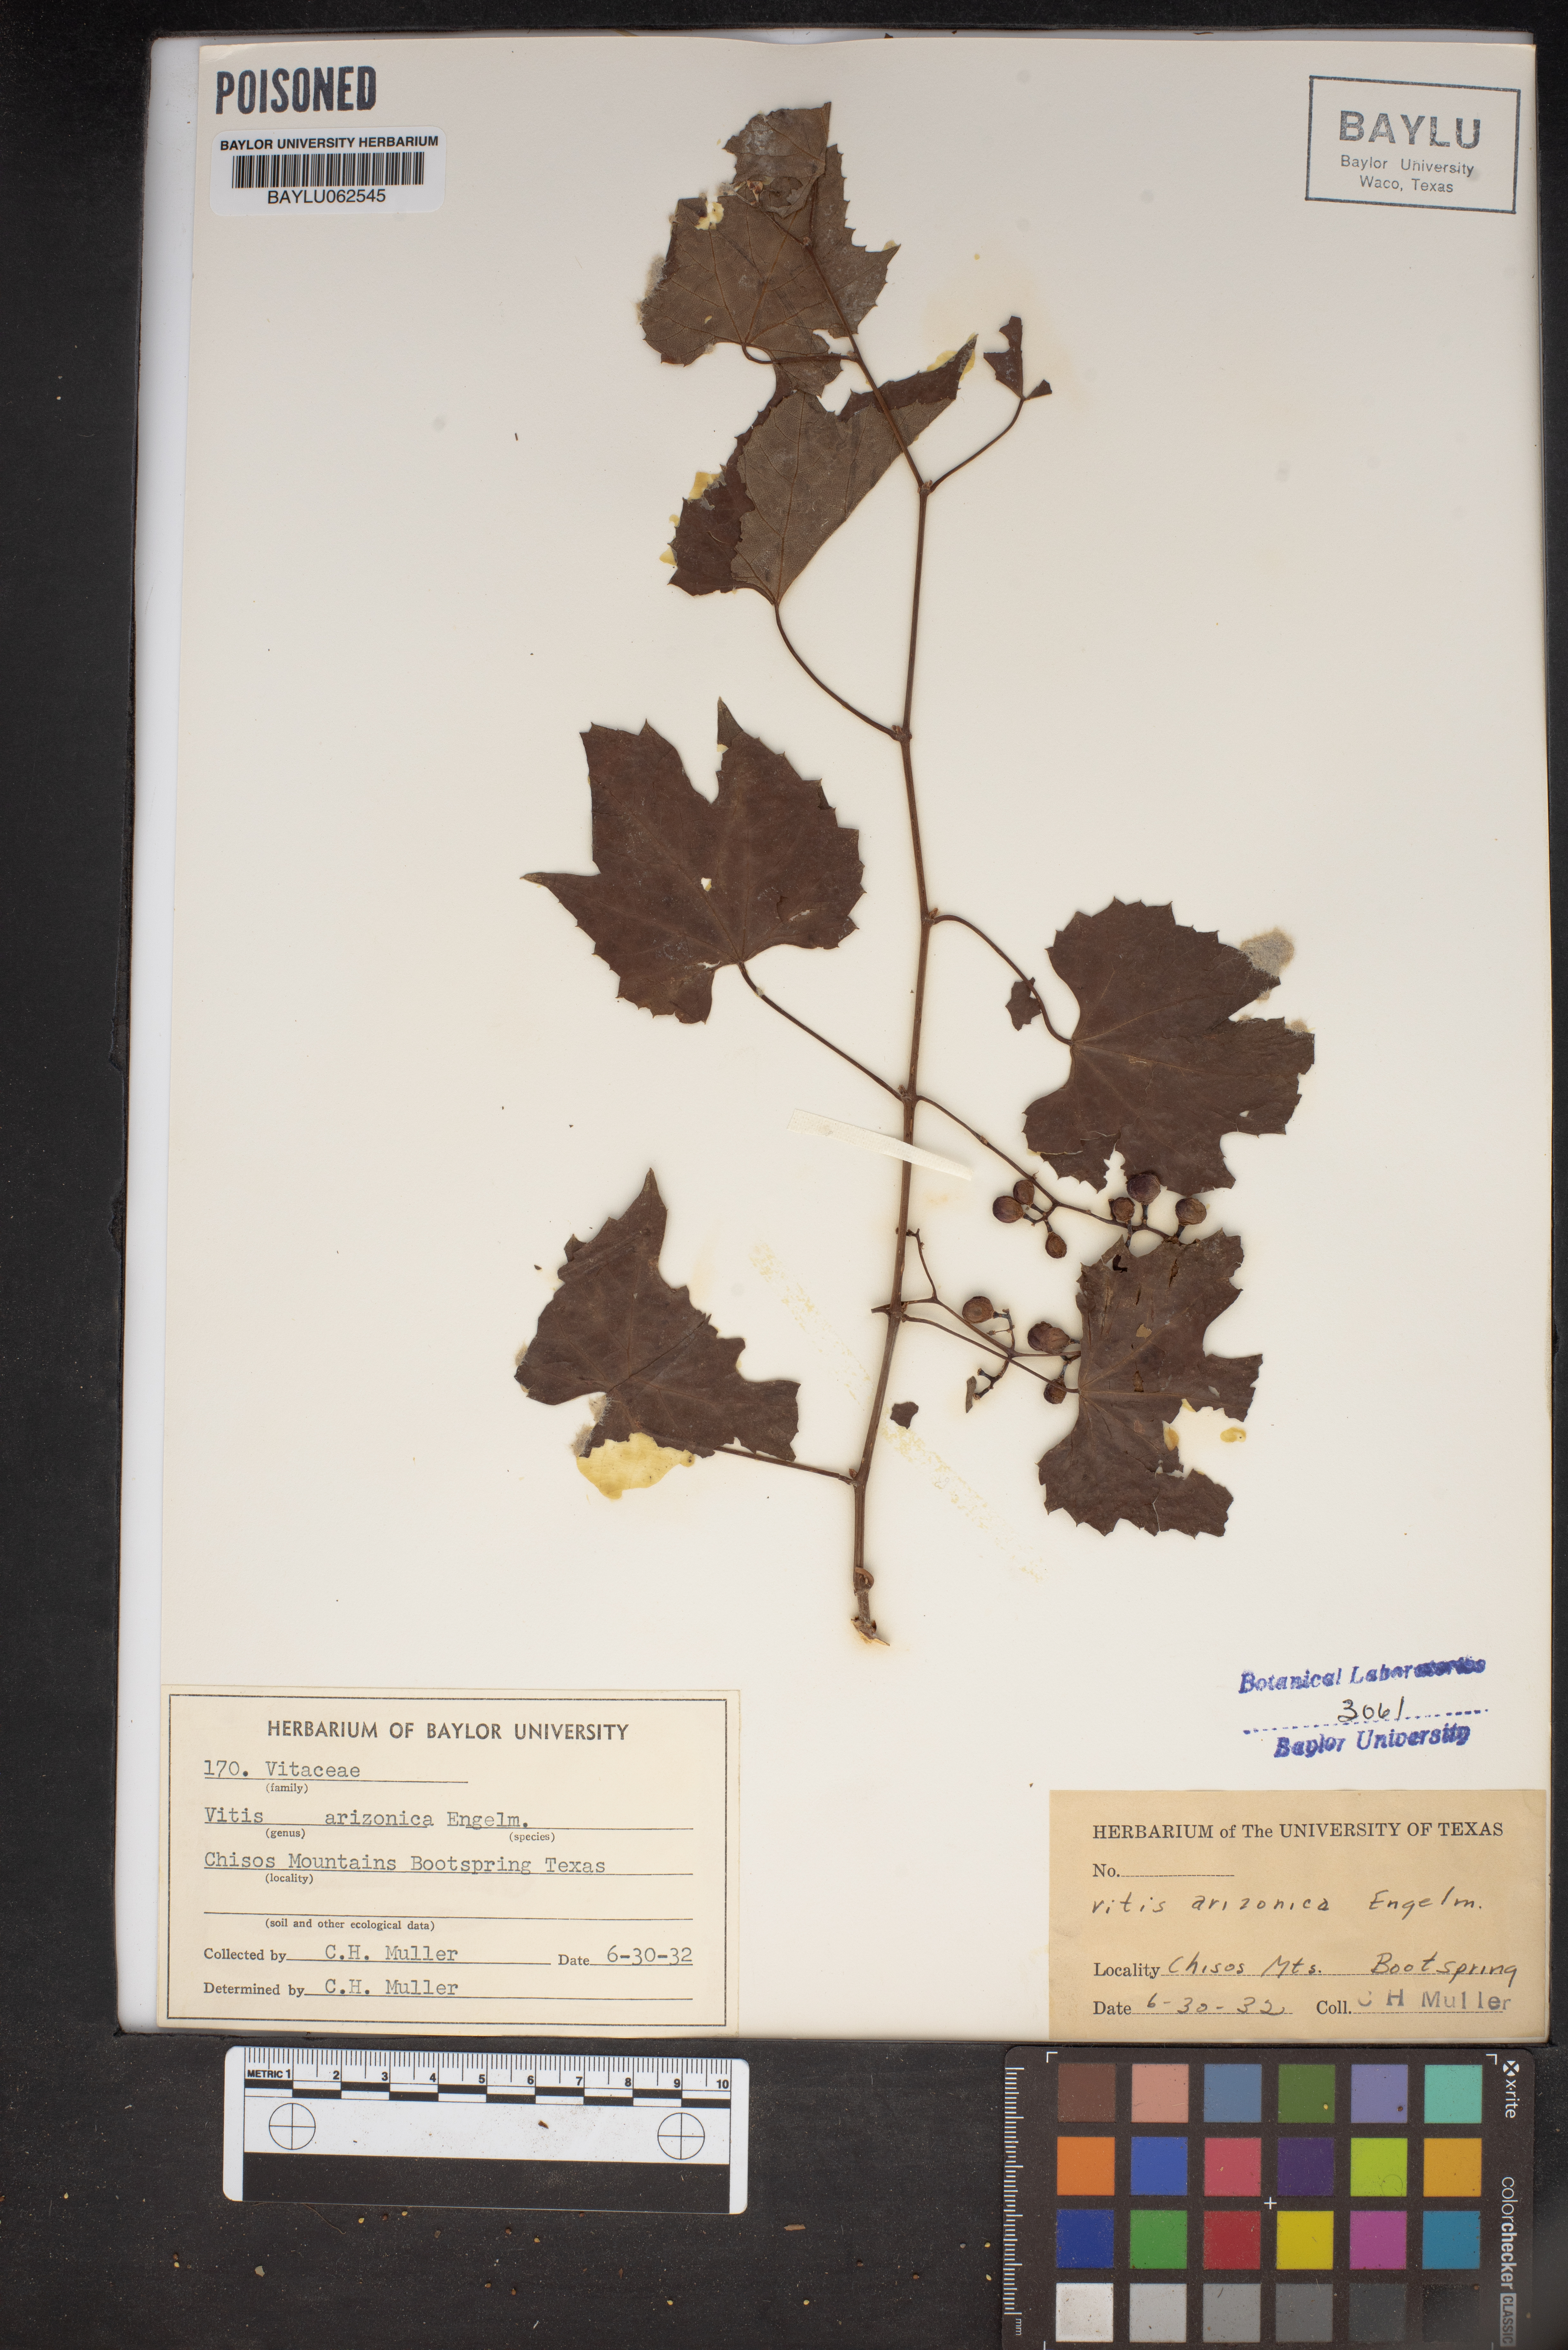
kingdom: Plantae
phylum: Tracheophyta
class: Magnoliopsida
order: Vitales
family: Vitaceae
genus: Vitis
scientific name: Vitis arizonica
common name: Canyon grape
